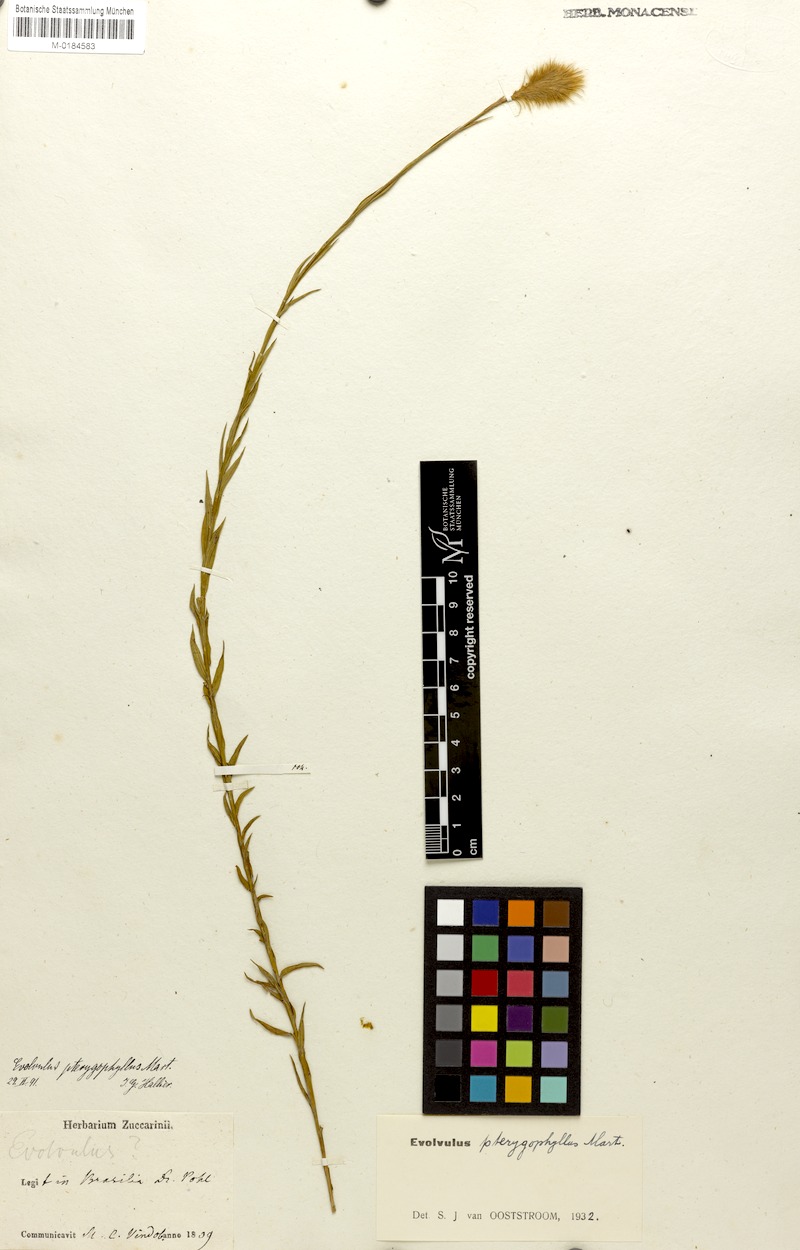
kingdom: Plantae
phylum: Tracheophyta
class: Magnoliopsida
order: Solanales
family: Convolvulaceae
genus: Evolvulus
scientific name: Evolvulus pterygophyllus
